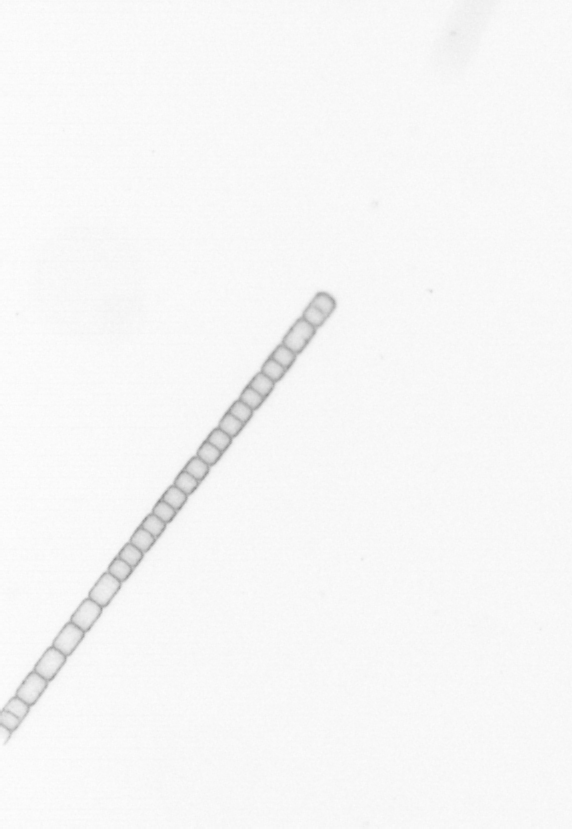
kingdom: Chromista
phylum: Ochrophyta
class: Bacillariophyceae
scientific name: Bacillariophyceae
